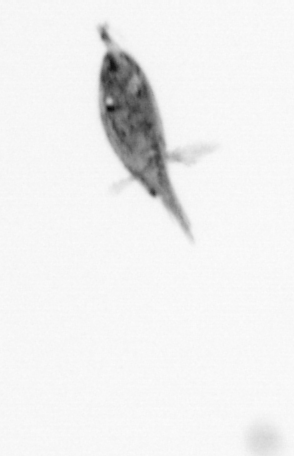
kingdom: Animalia
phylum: Arthropoda
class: Maxillopoda
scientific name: Maxillopoda
